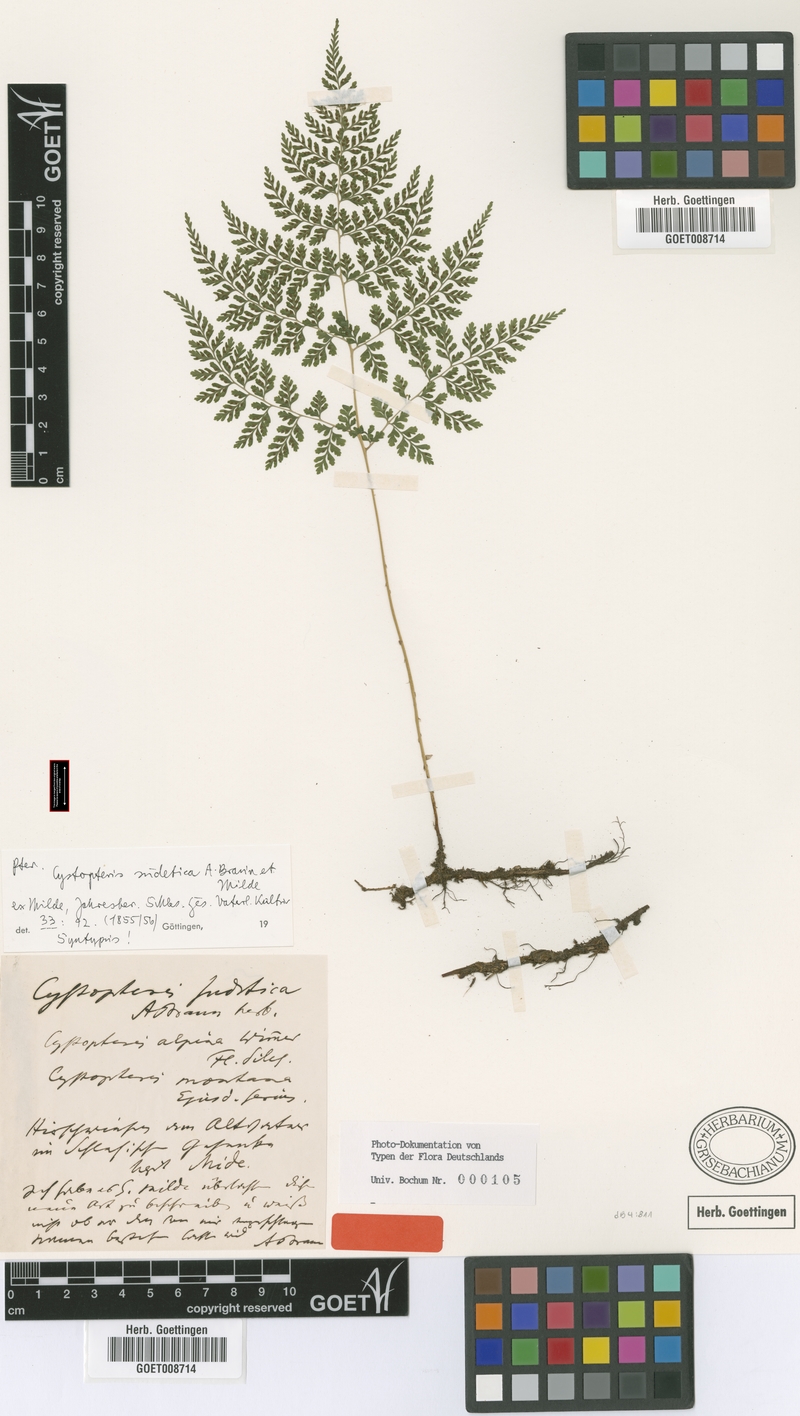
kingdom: Plantae
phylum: Tracheophyta
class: Polypodiopsida
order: Polypodiales
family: Cystopteridaceae
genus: Cystopteris
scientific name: Cystopteris sudetica
